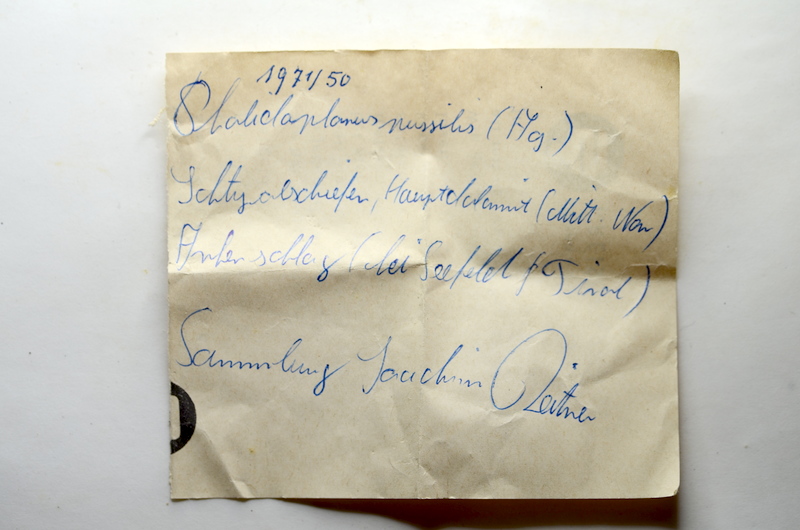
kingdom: Animalia
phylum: Chordata
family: Pholidophoridae
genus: Pholidophorus
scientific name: Pholidophorus pusillus
